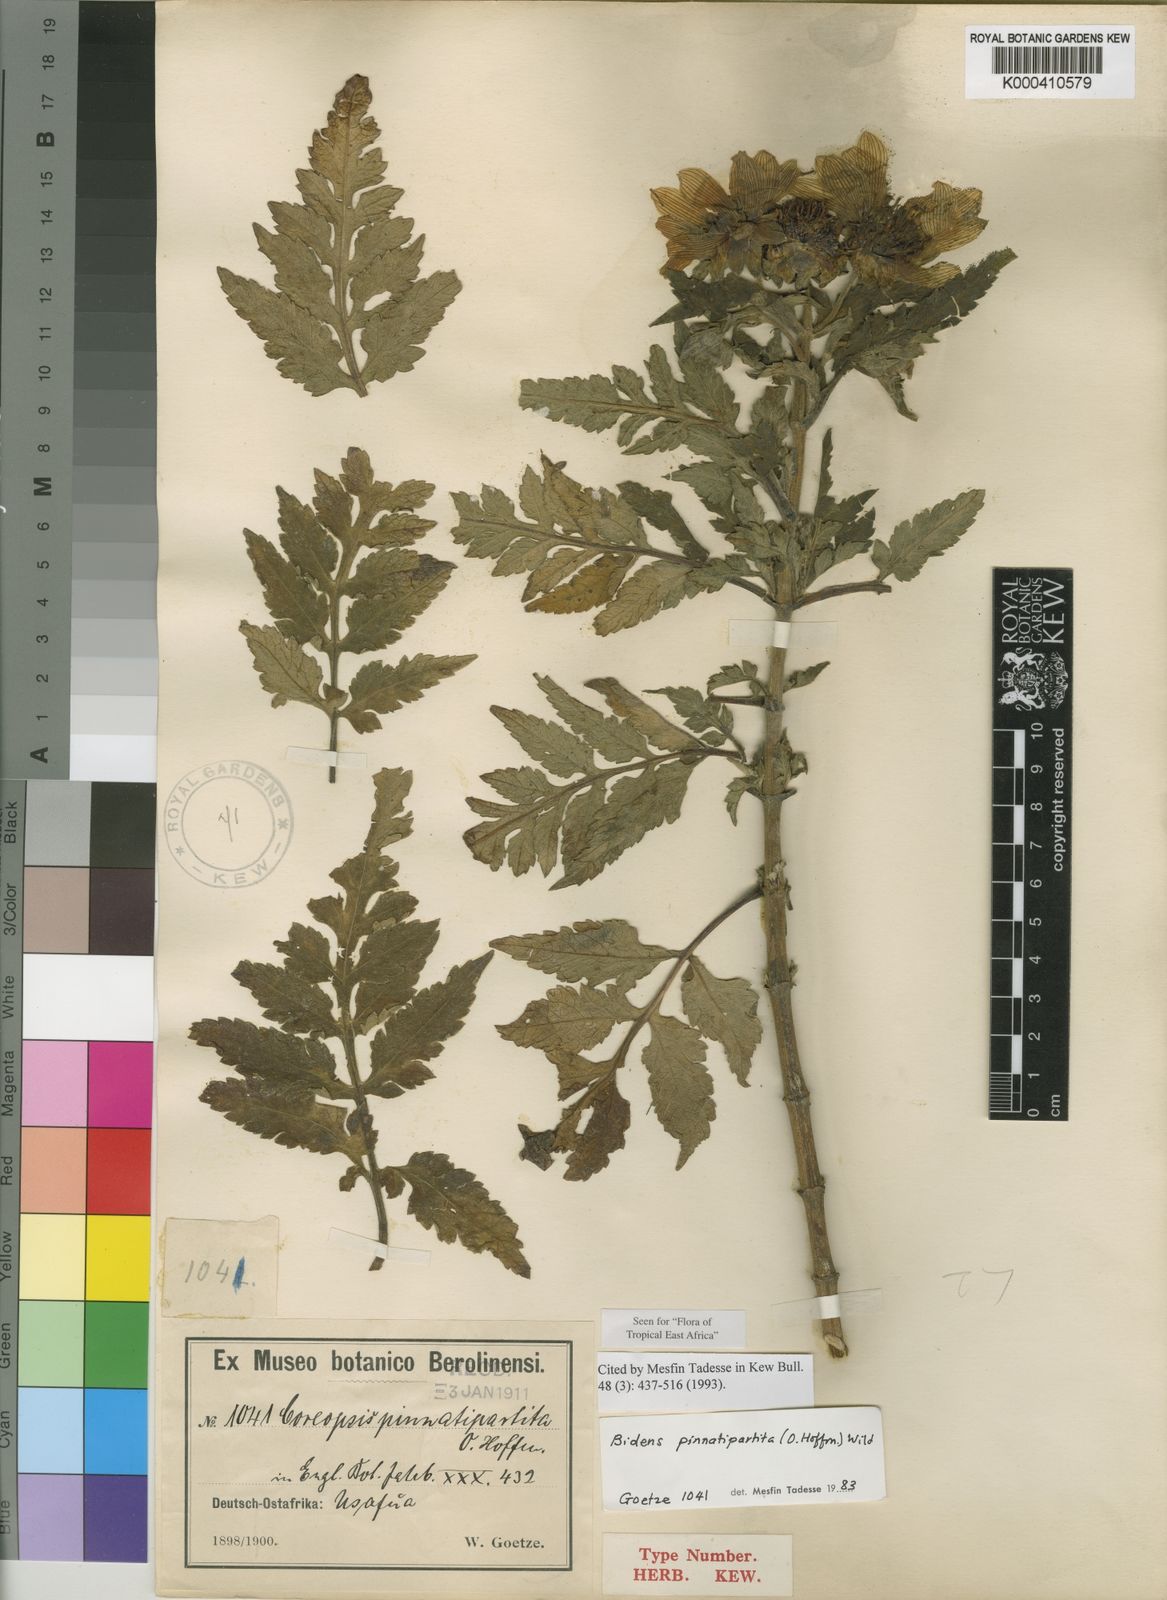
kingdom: Plantae
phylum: Tracheophyta
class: Magnoliopsida
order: Asterales
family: Asteraceae
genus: Bidens
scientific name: Bidens pinnatipartita
